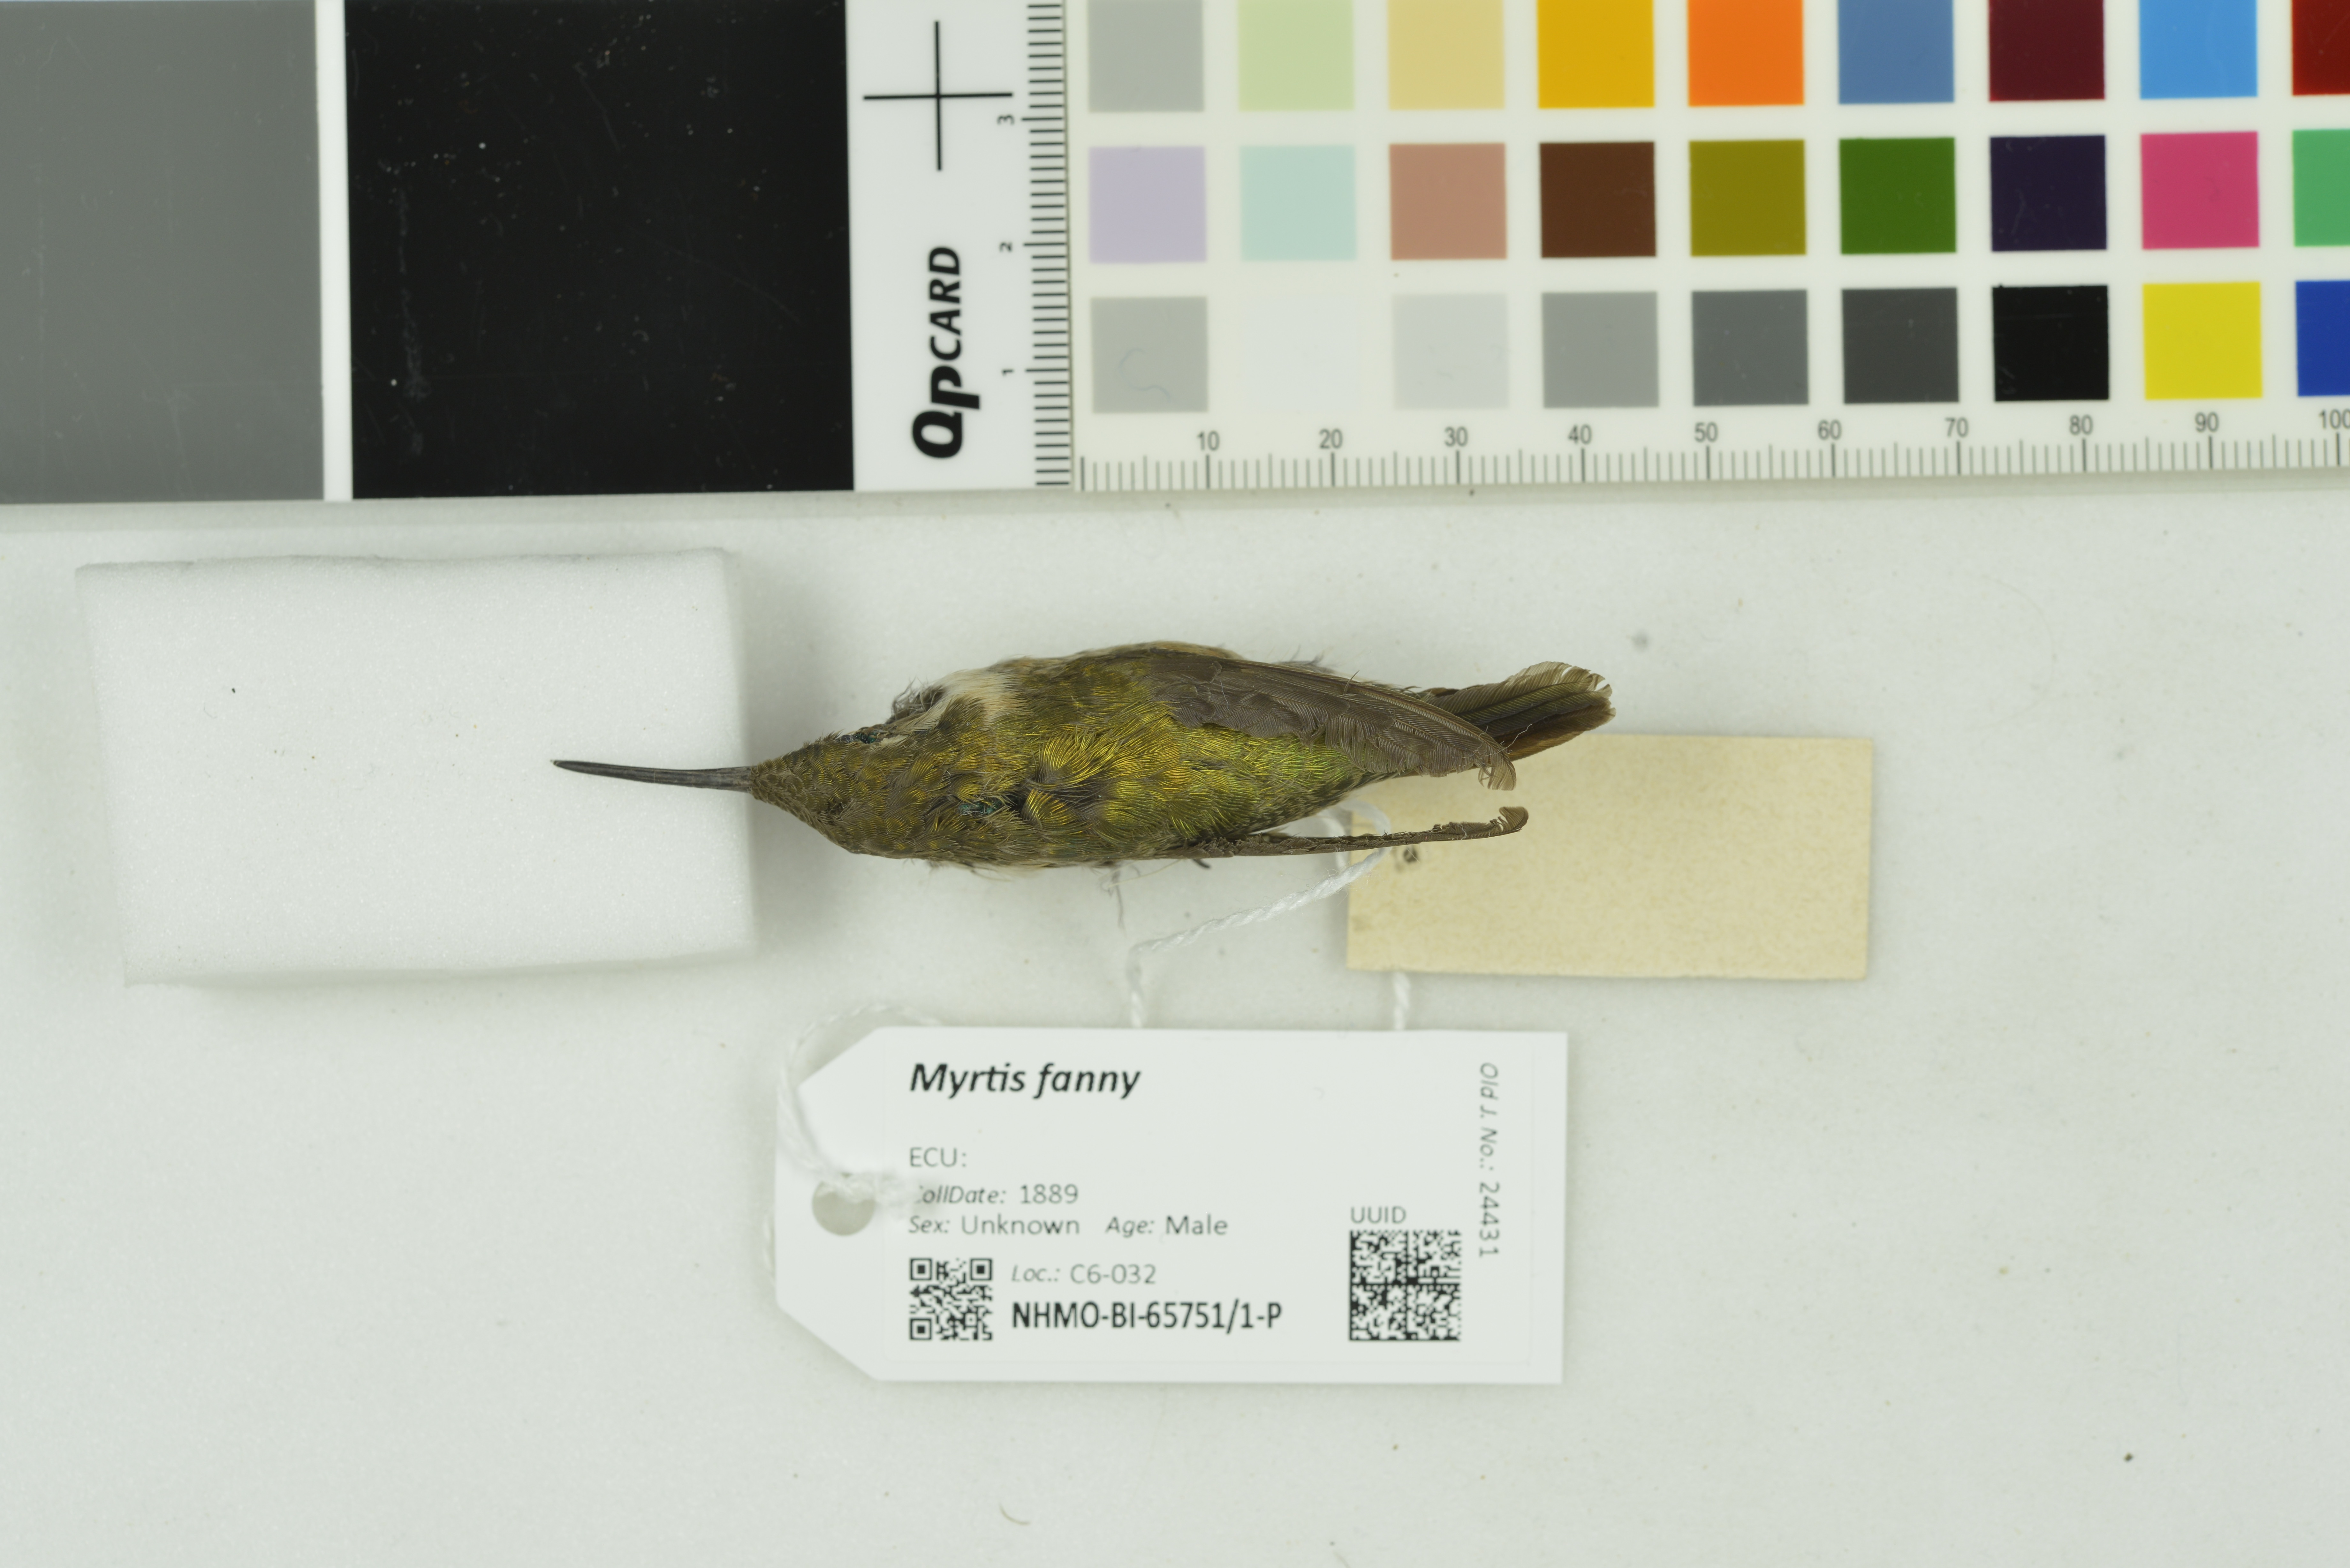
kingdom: Animalia
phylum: Chordata
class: Aves
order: Apodiformes
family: Trochilidae
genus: Myrtis
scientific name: Myrtis fanny
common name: Purple-collared woodstar
